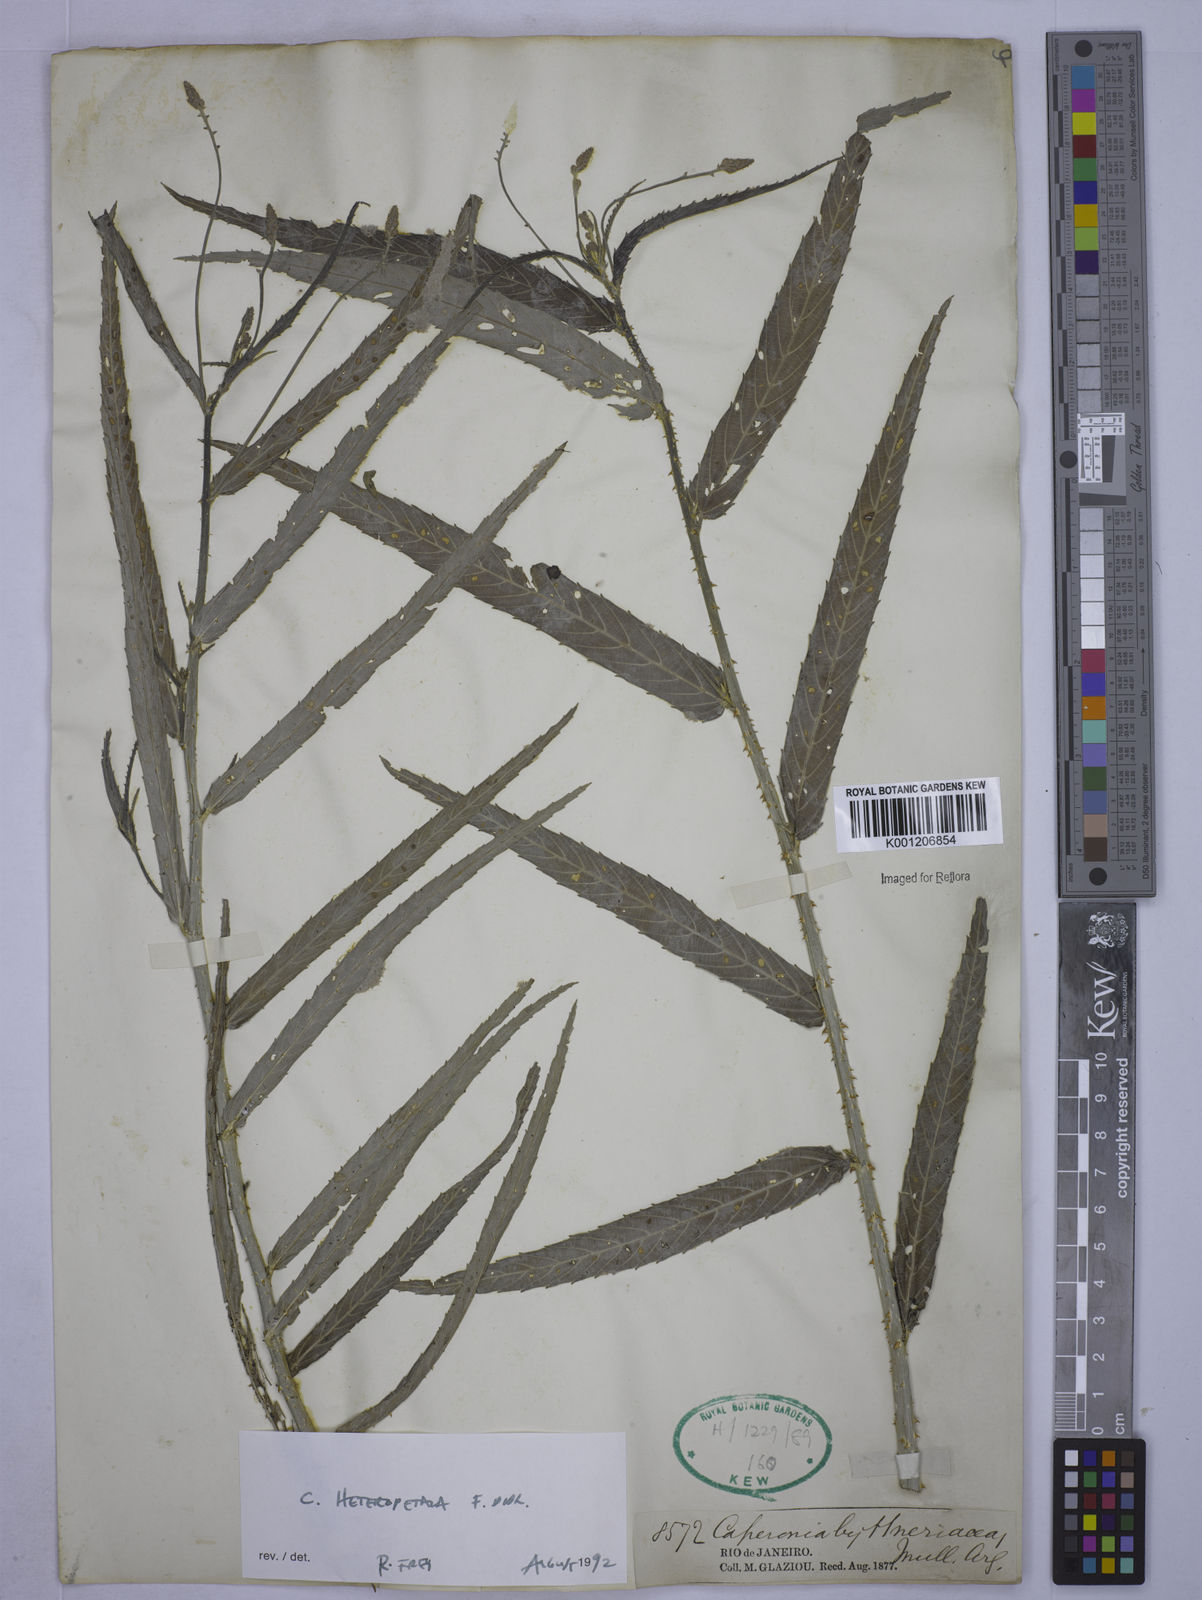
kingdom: Plantae
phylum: Tracheophyta
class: Magnoliopsida
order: Malpighiales
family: Euphorbiaceae
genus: Caperonia
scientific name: Caperonia heteropetala
